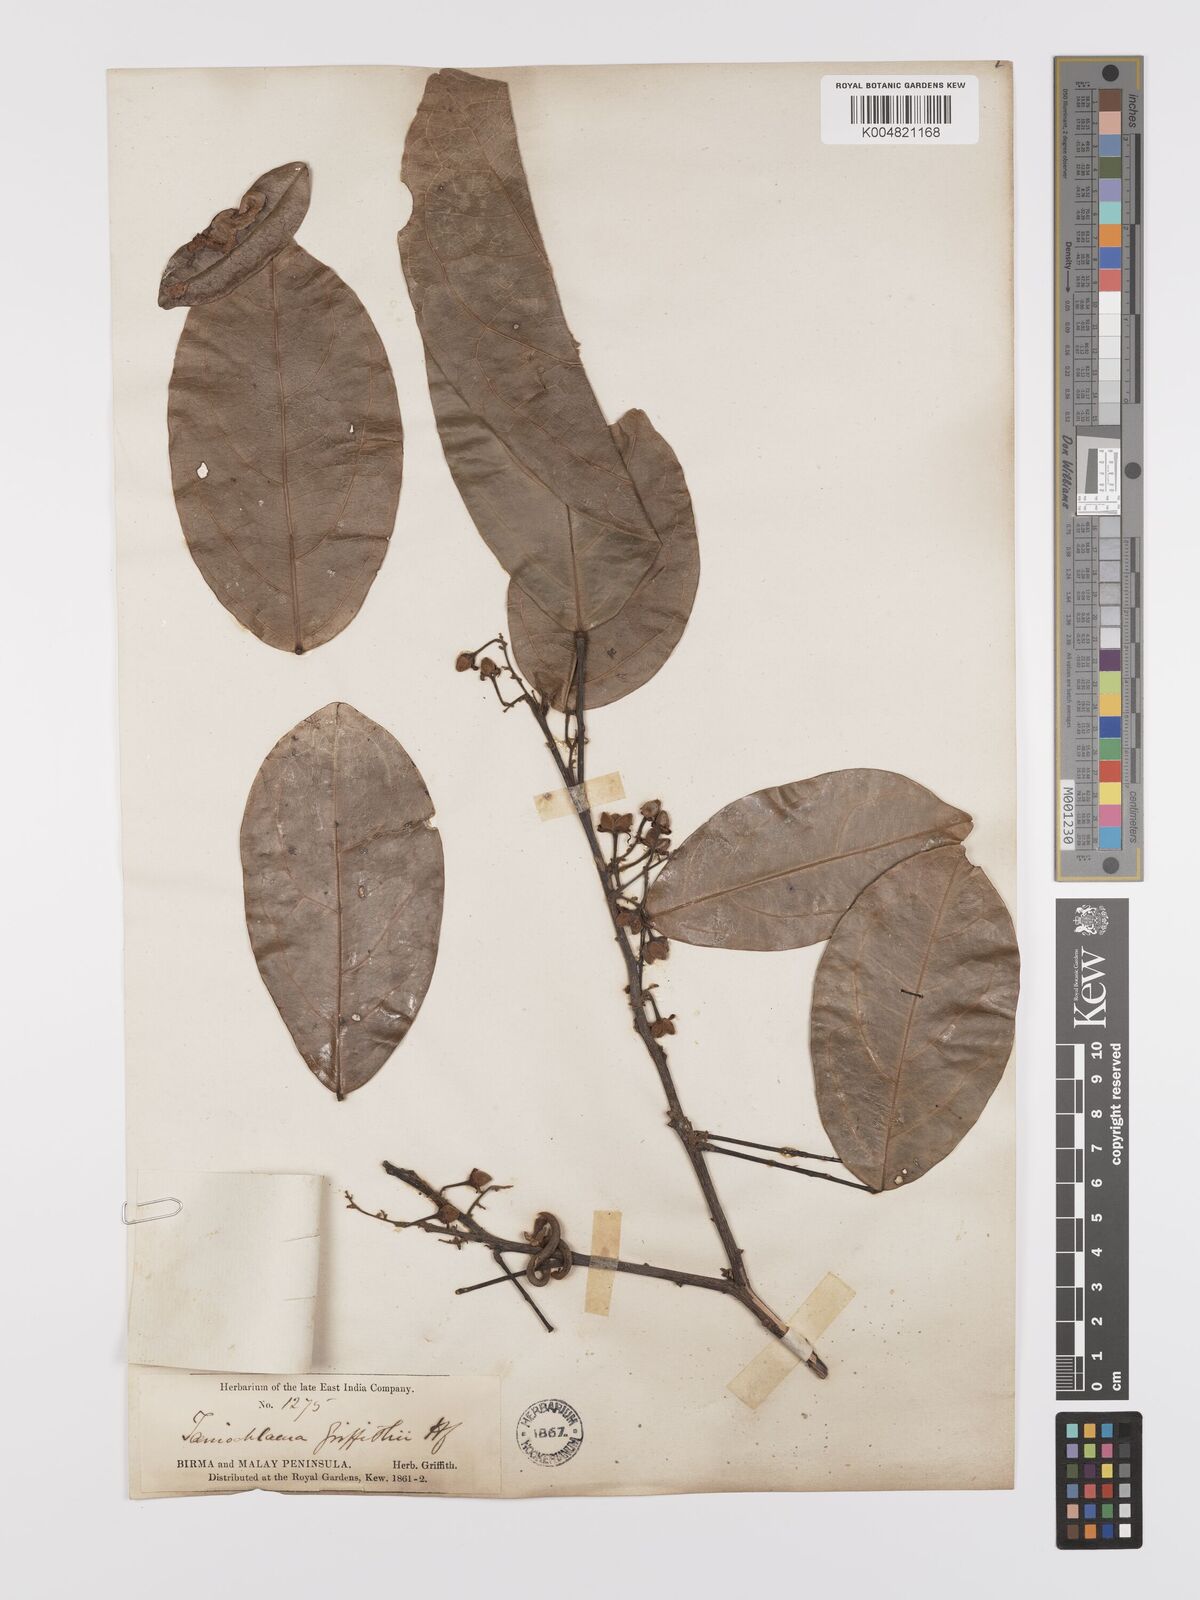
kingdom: Plantae
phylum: Tracheophyta
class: Magnoliopsida
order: Oxalidales
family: Connaraceae
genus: Rourea
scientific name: Rourea acutipetala
